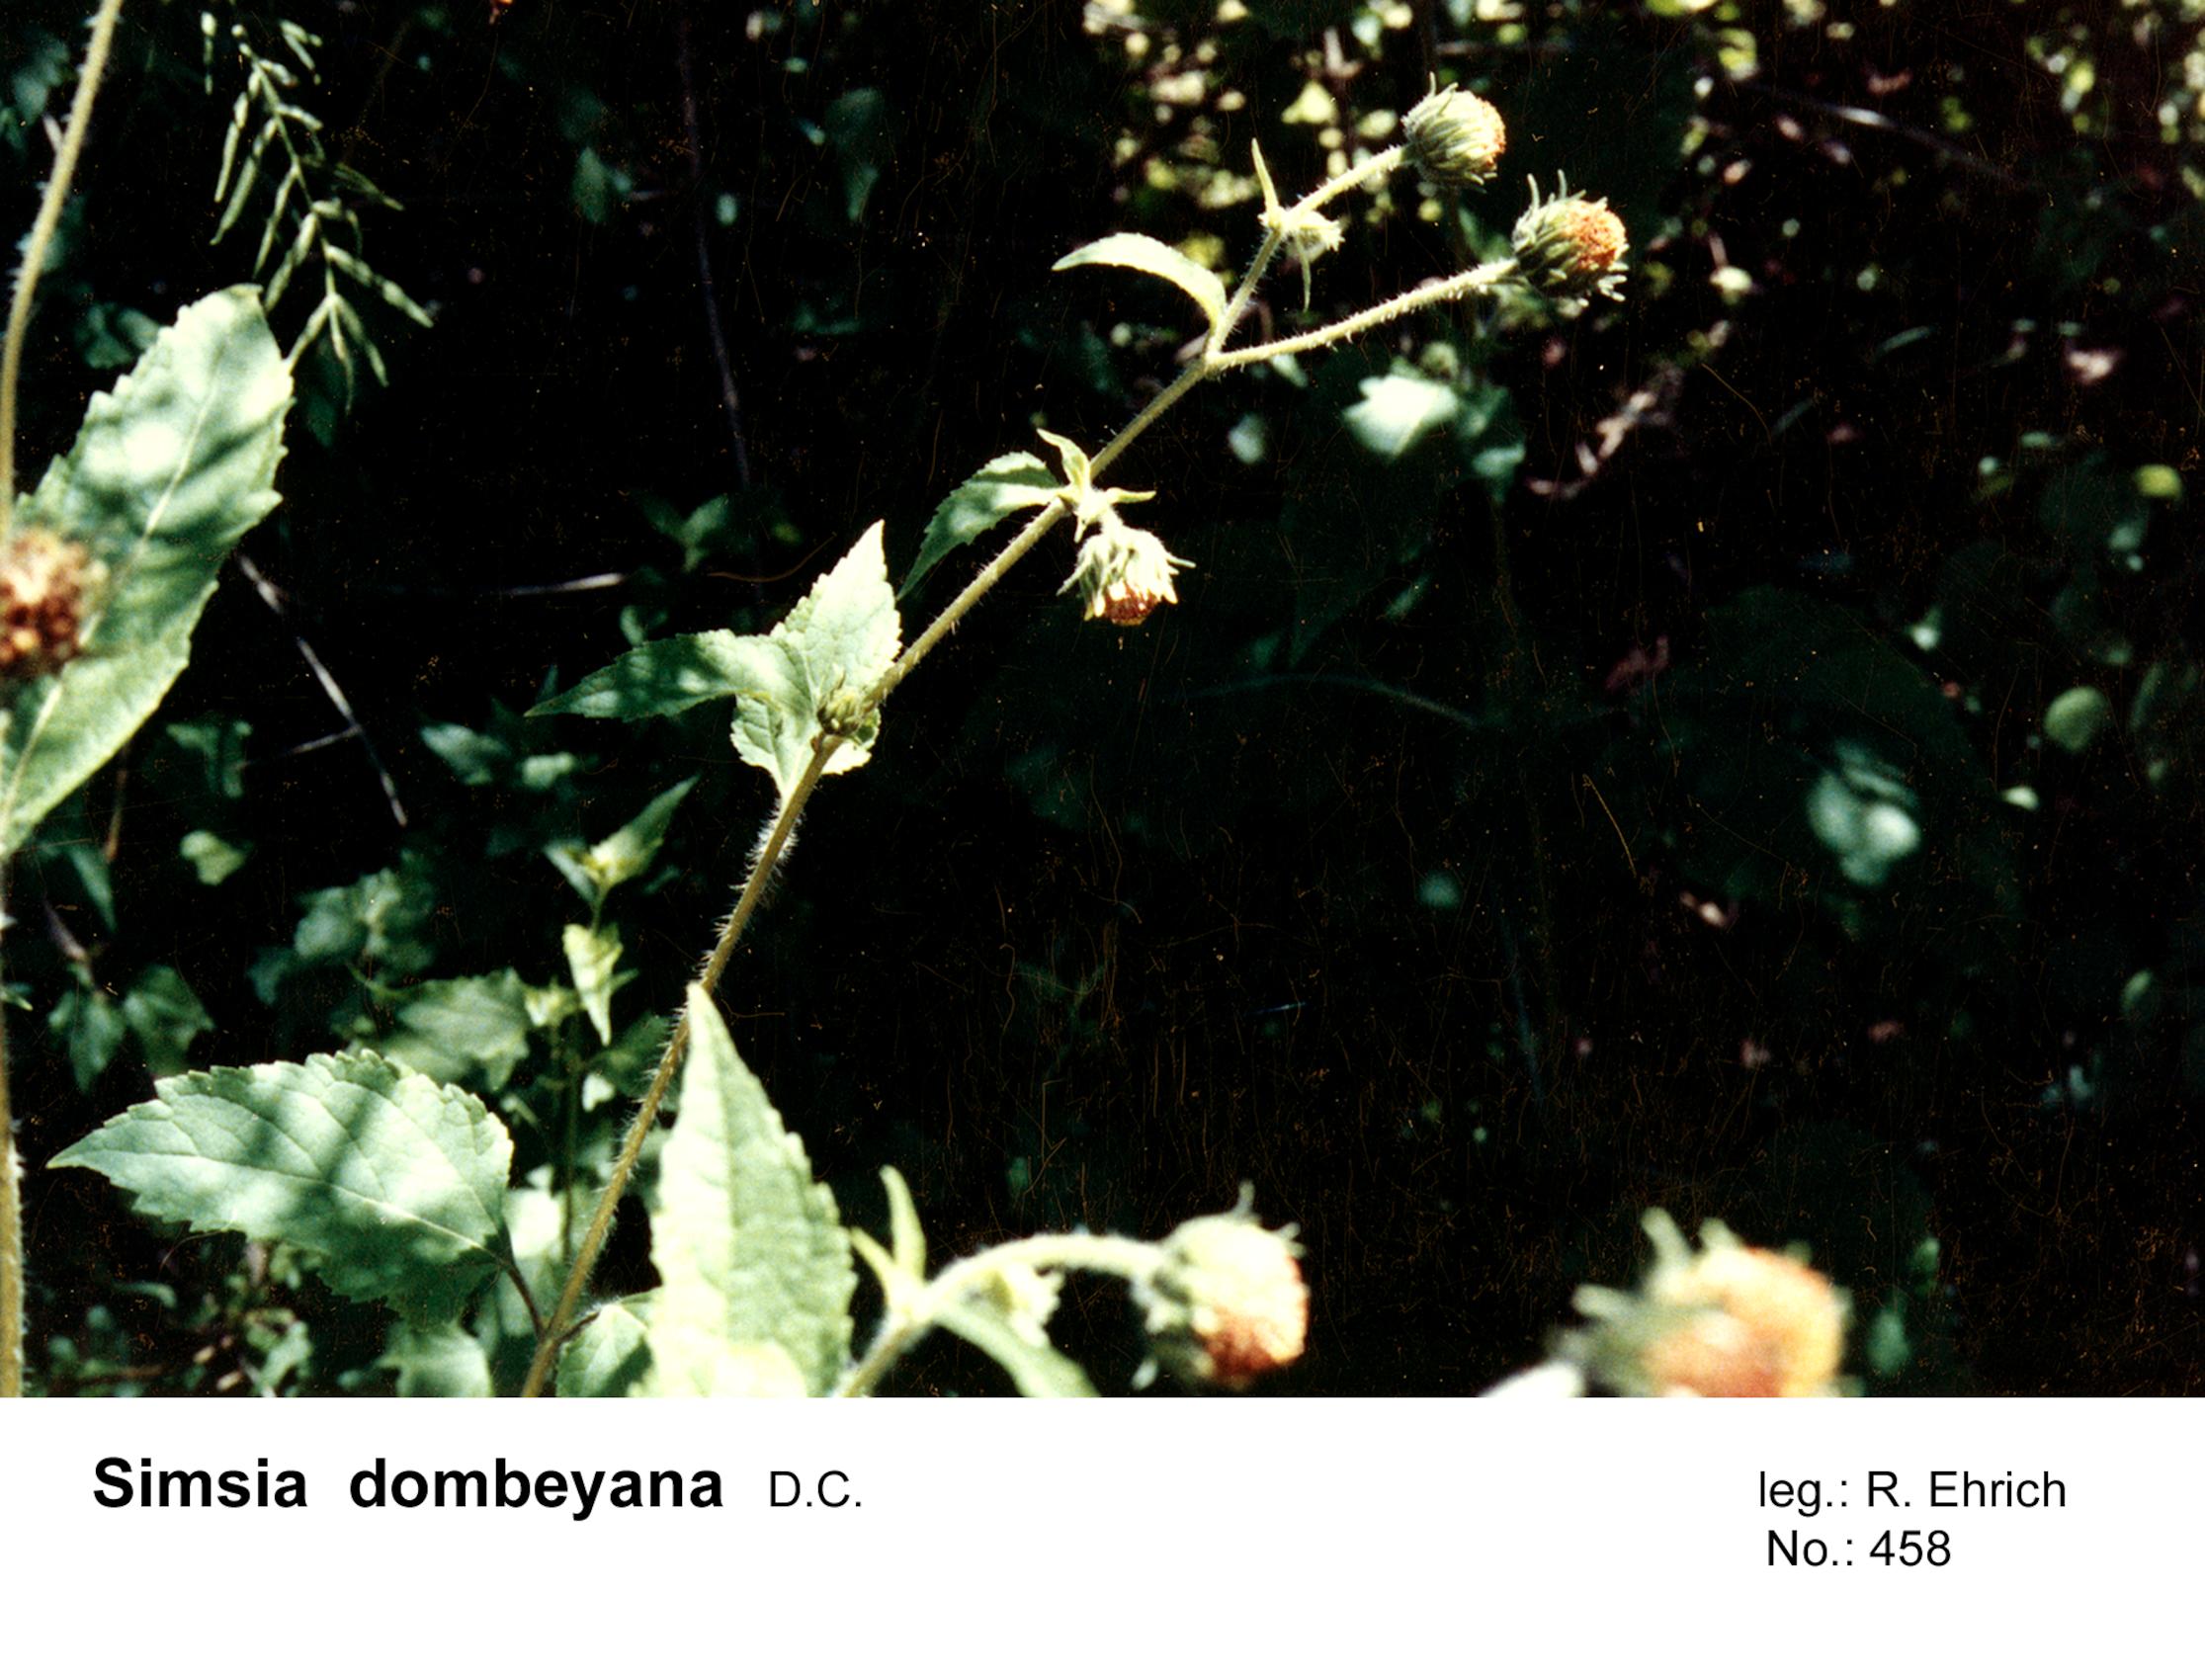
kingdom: Plantae
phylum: Tracheophyta
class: Magnoliopsida
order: Asterales
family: Asteraceae
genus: Simsia
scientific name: Simsia dombeyana
